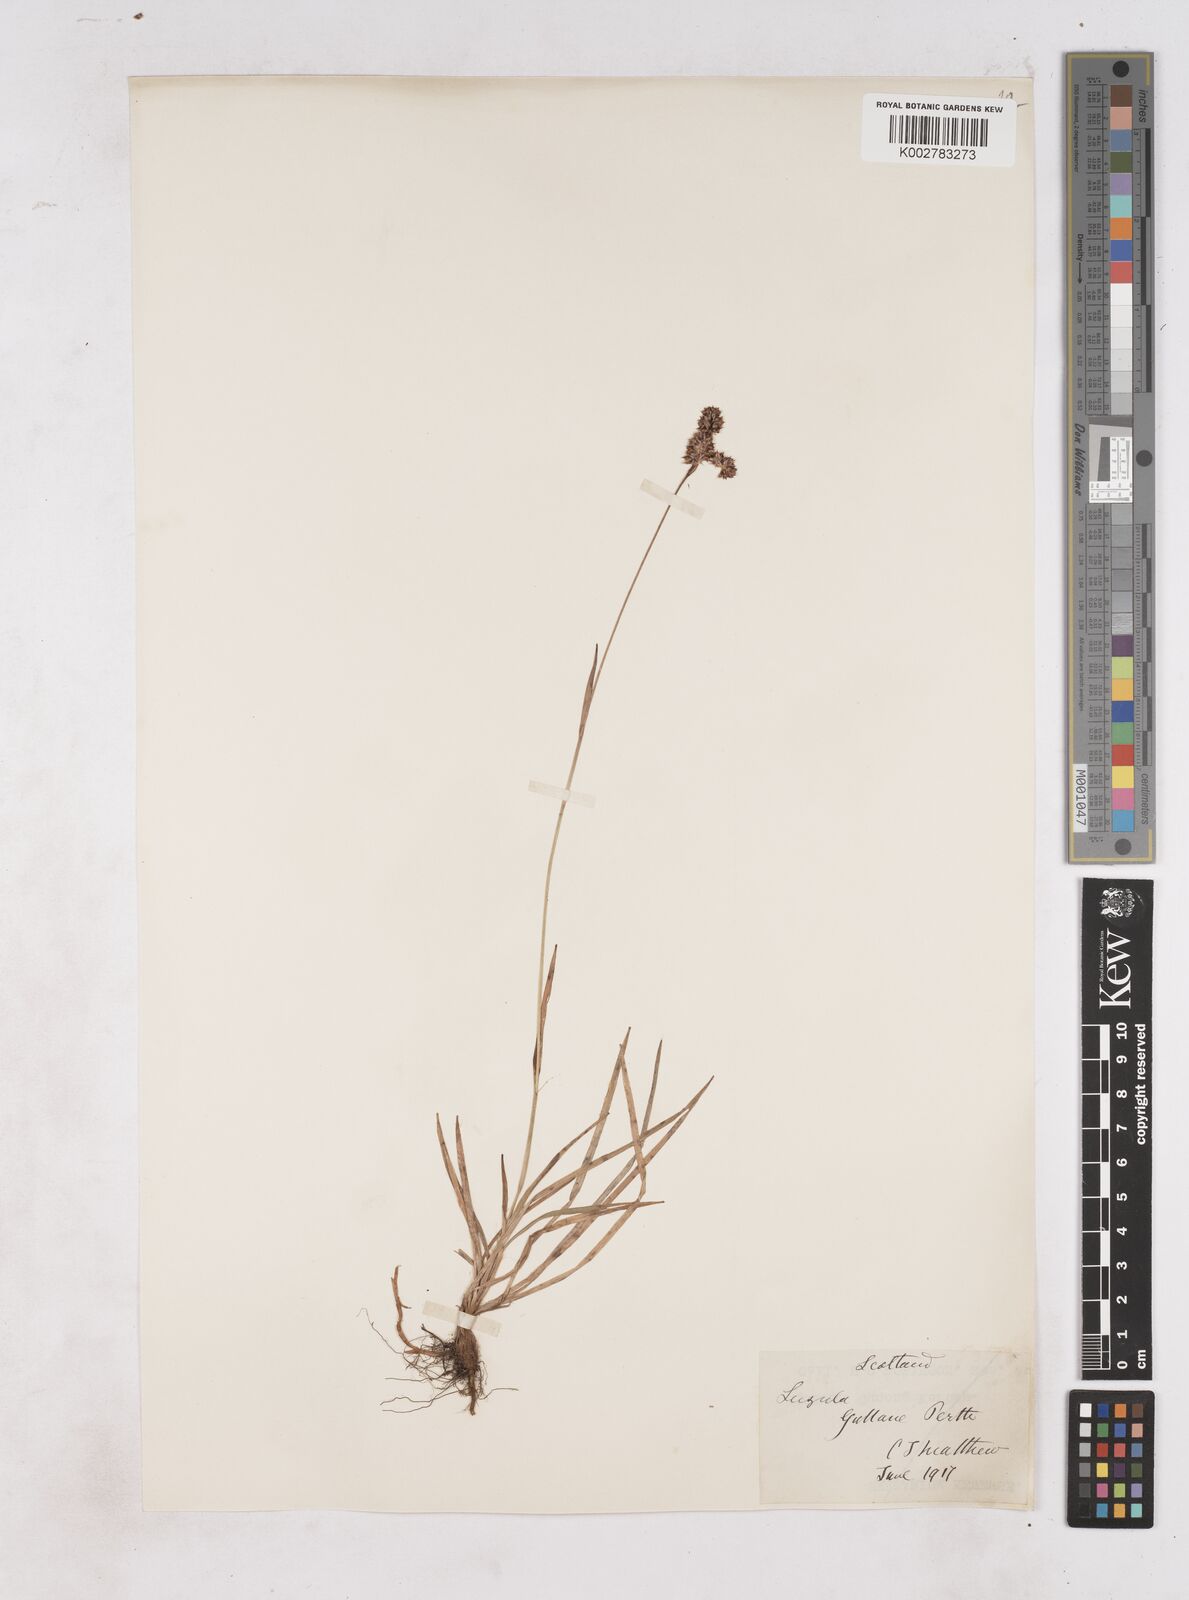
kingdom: Plantae
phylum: Tracheophyta
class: Liliopsida
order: Poales
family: Juncaceae
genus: Luzula
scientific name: Luzula multiflora
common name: Heath wood-rush
